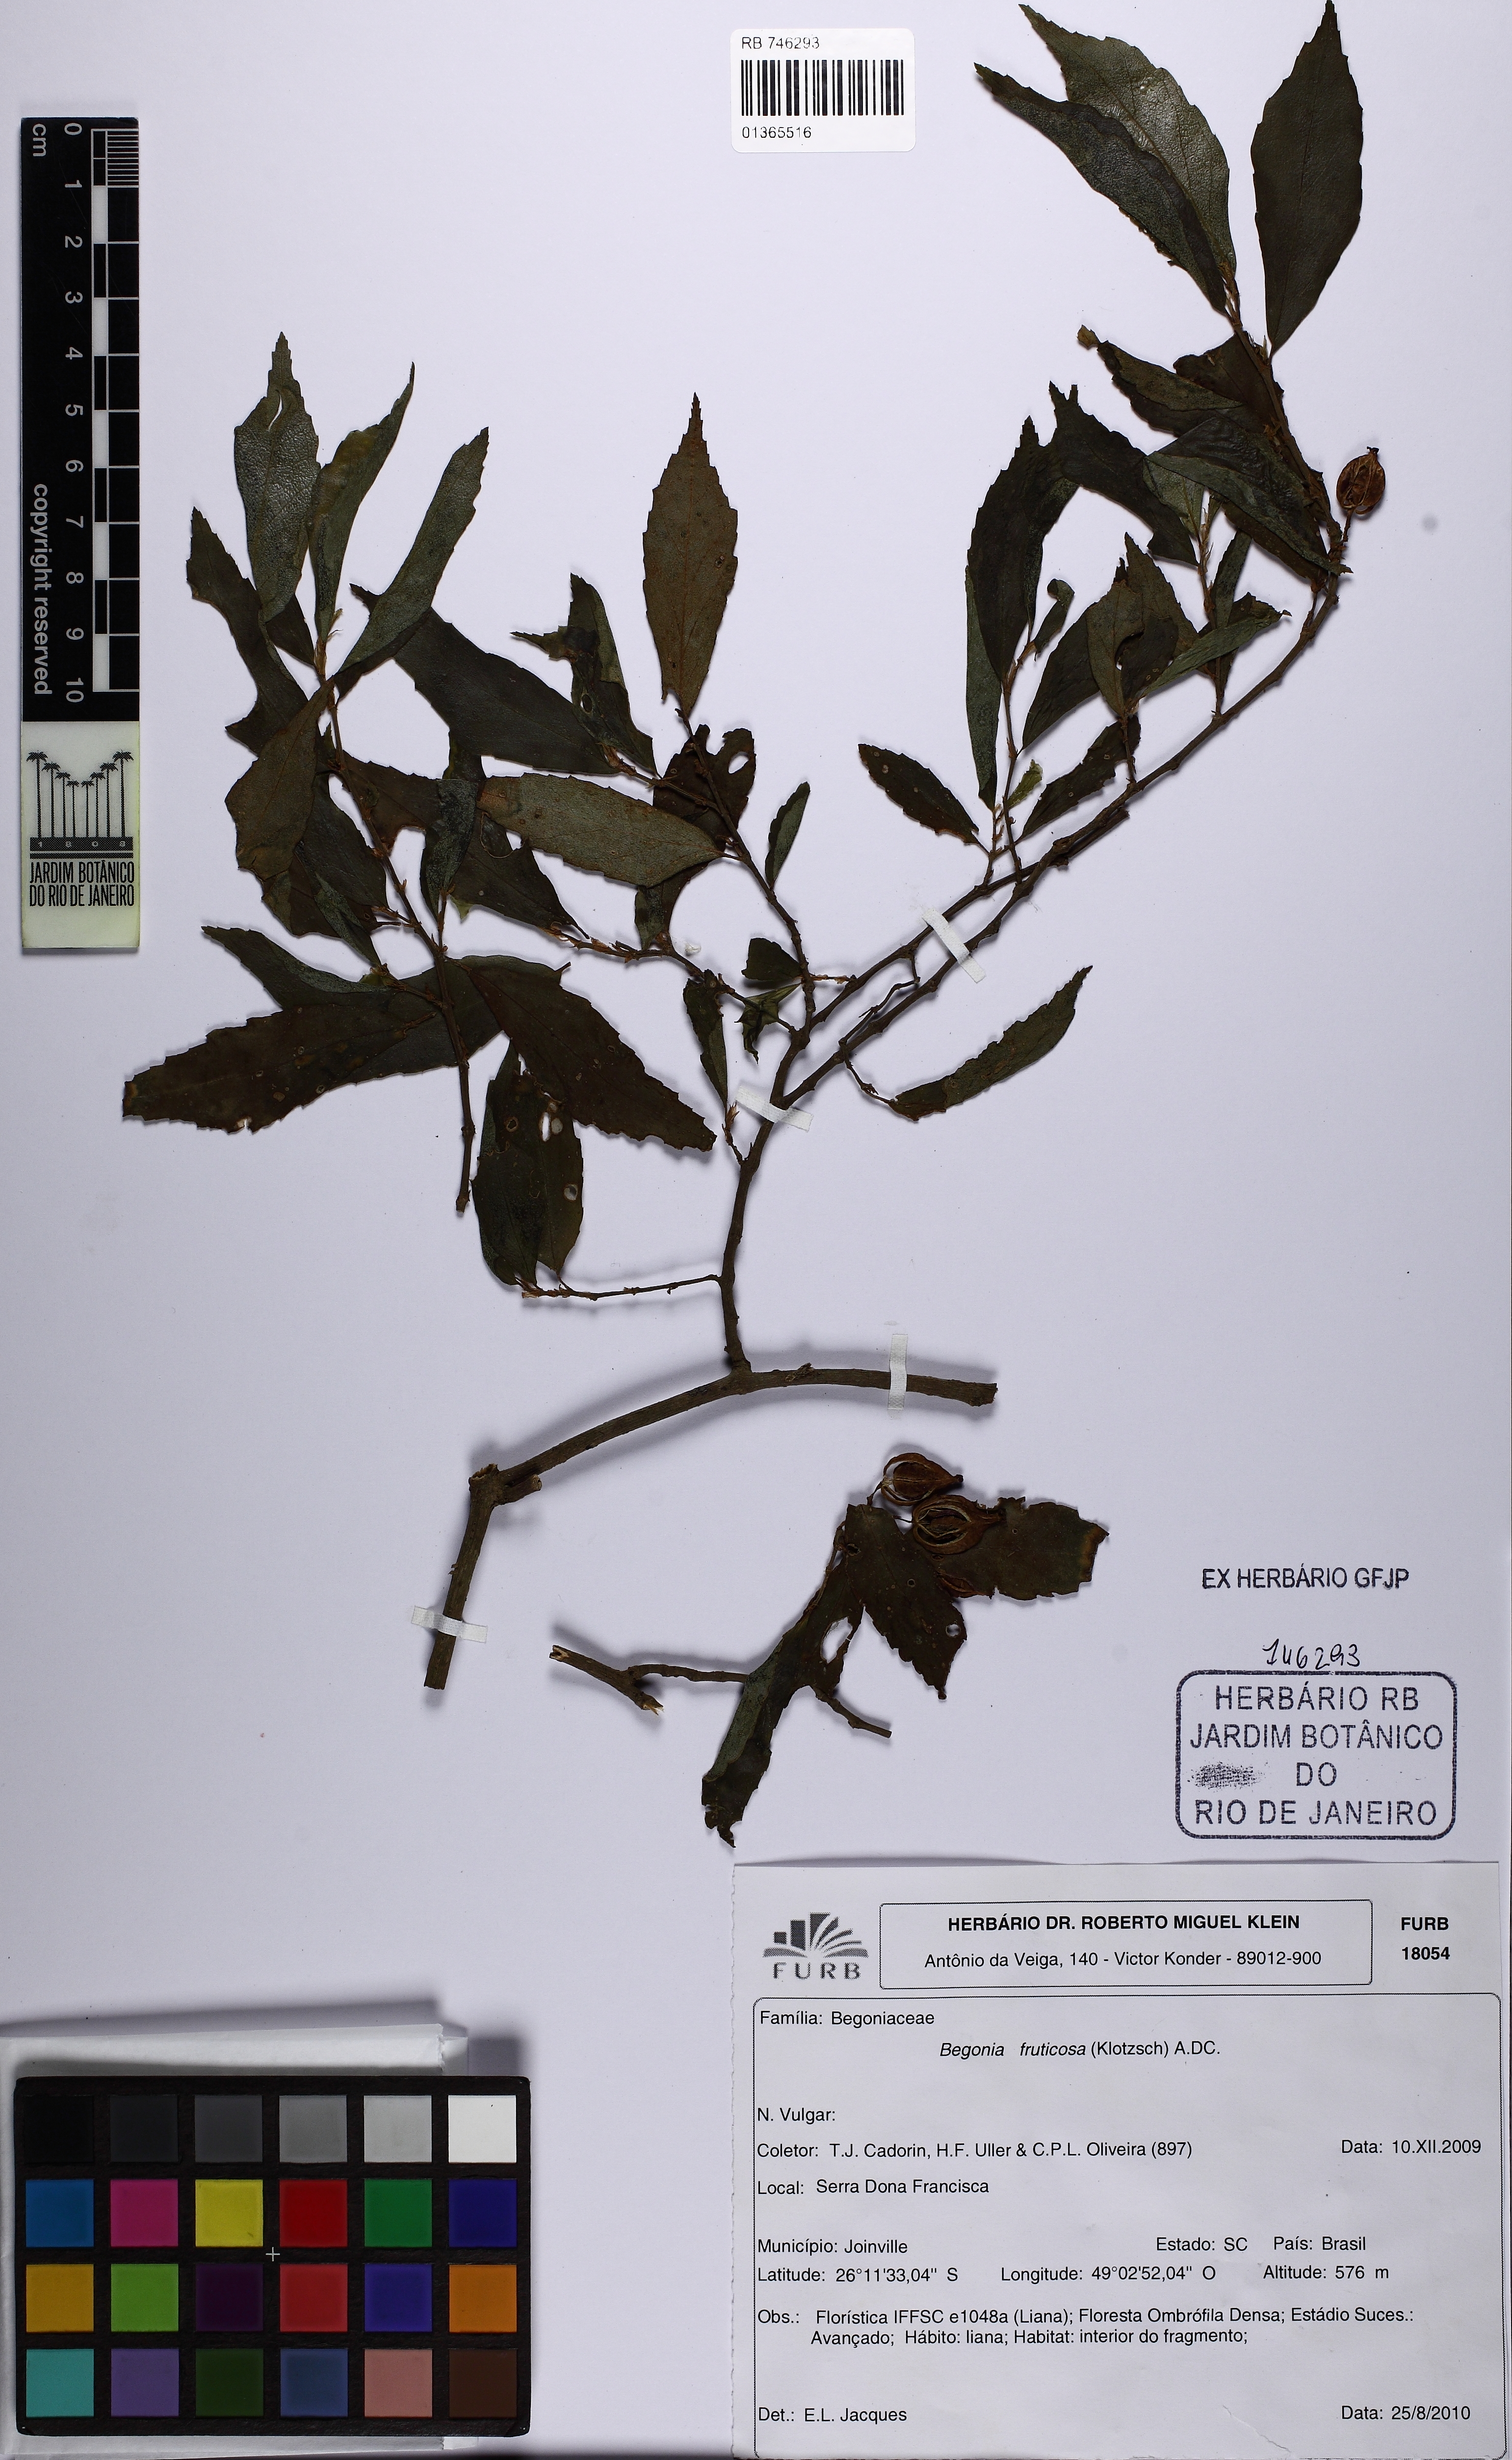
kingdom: Plantae
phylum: Tracheophyta
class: Magnoliopsida
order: Cucurbitales
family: Begoniaceae
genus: Begonia
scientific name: Begonia fruticosa
